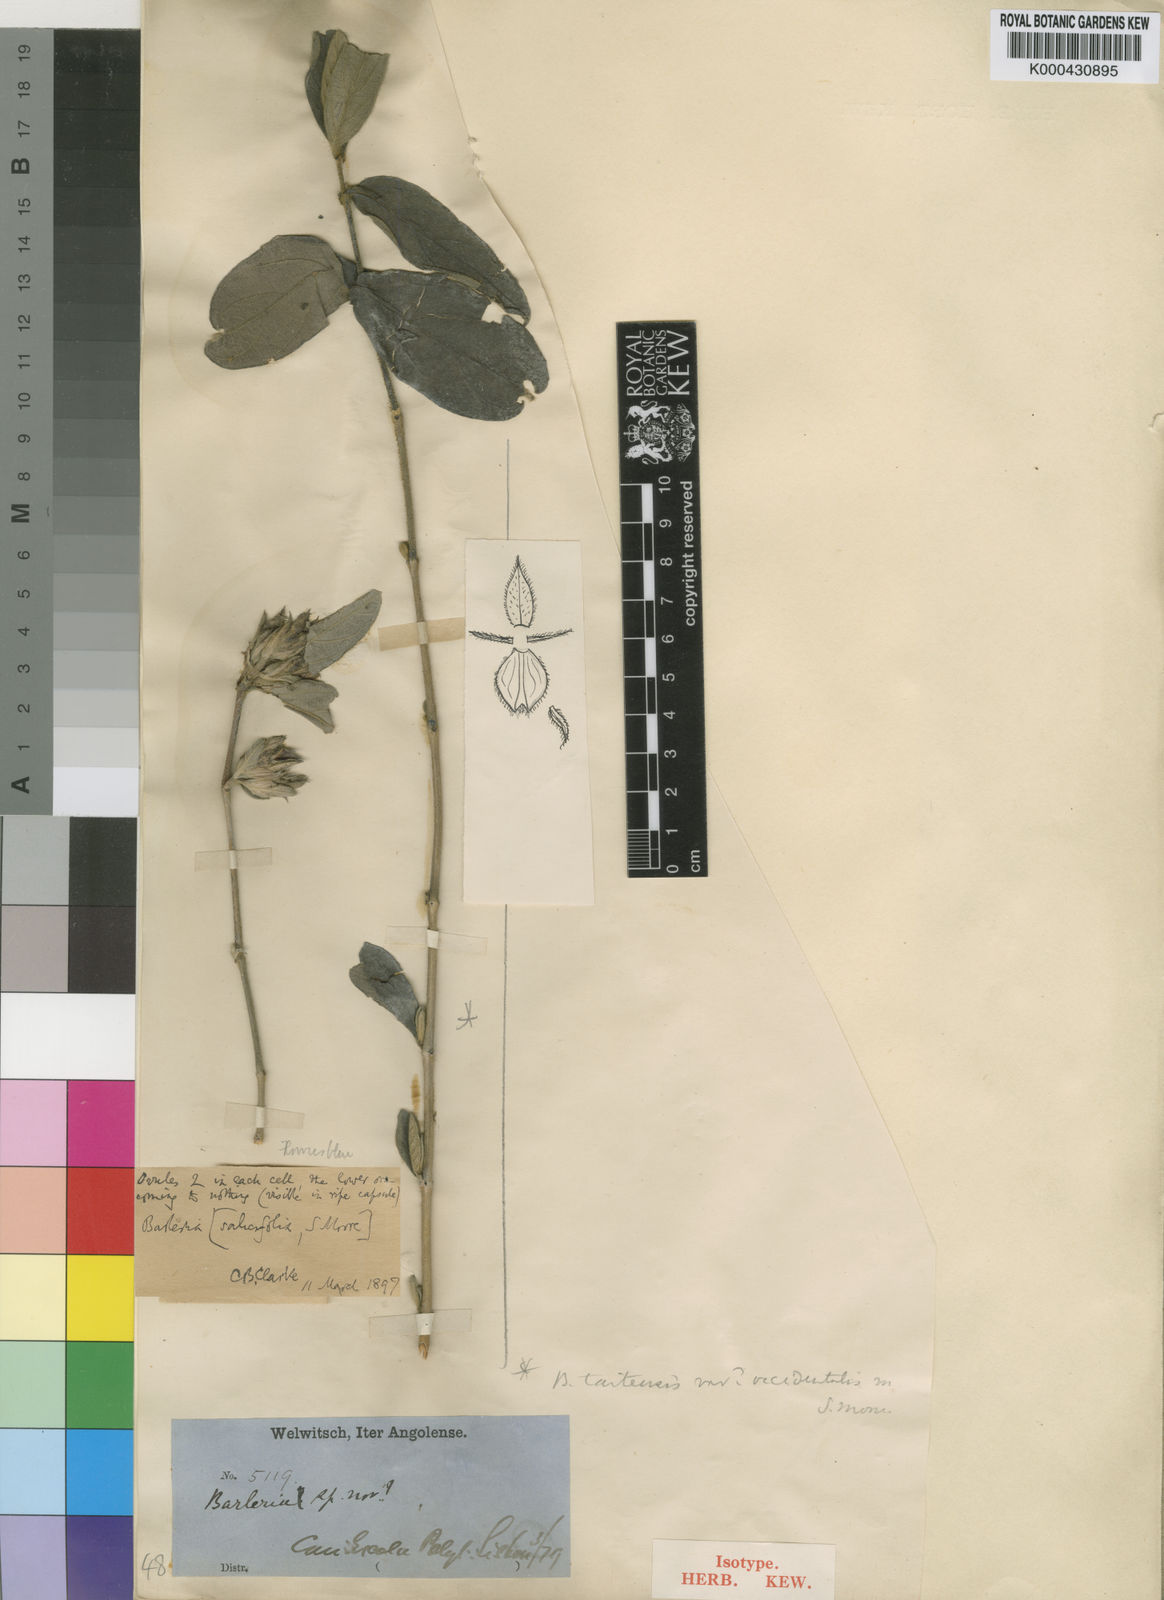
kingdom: Plantae
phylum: Tracheophyta
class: Magnoliopsida
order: Lamiales
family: Acanthaceae
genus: Barleria
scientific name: Barleria taitensis
